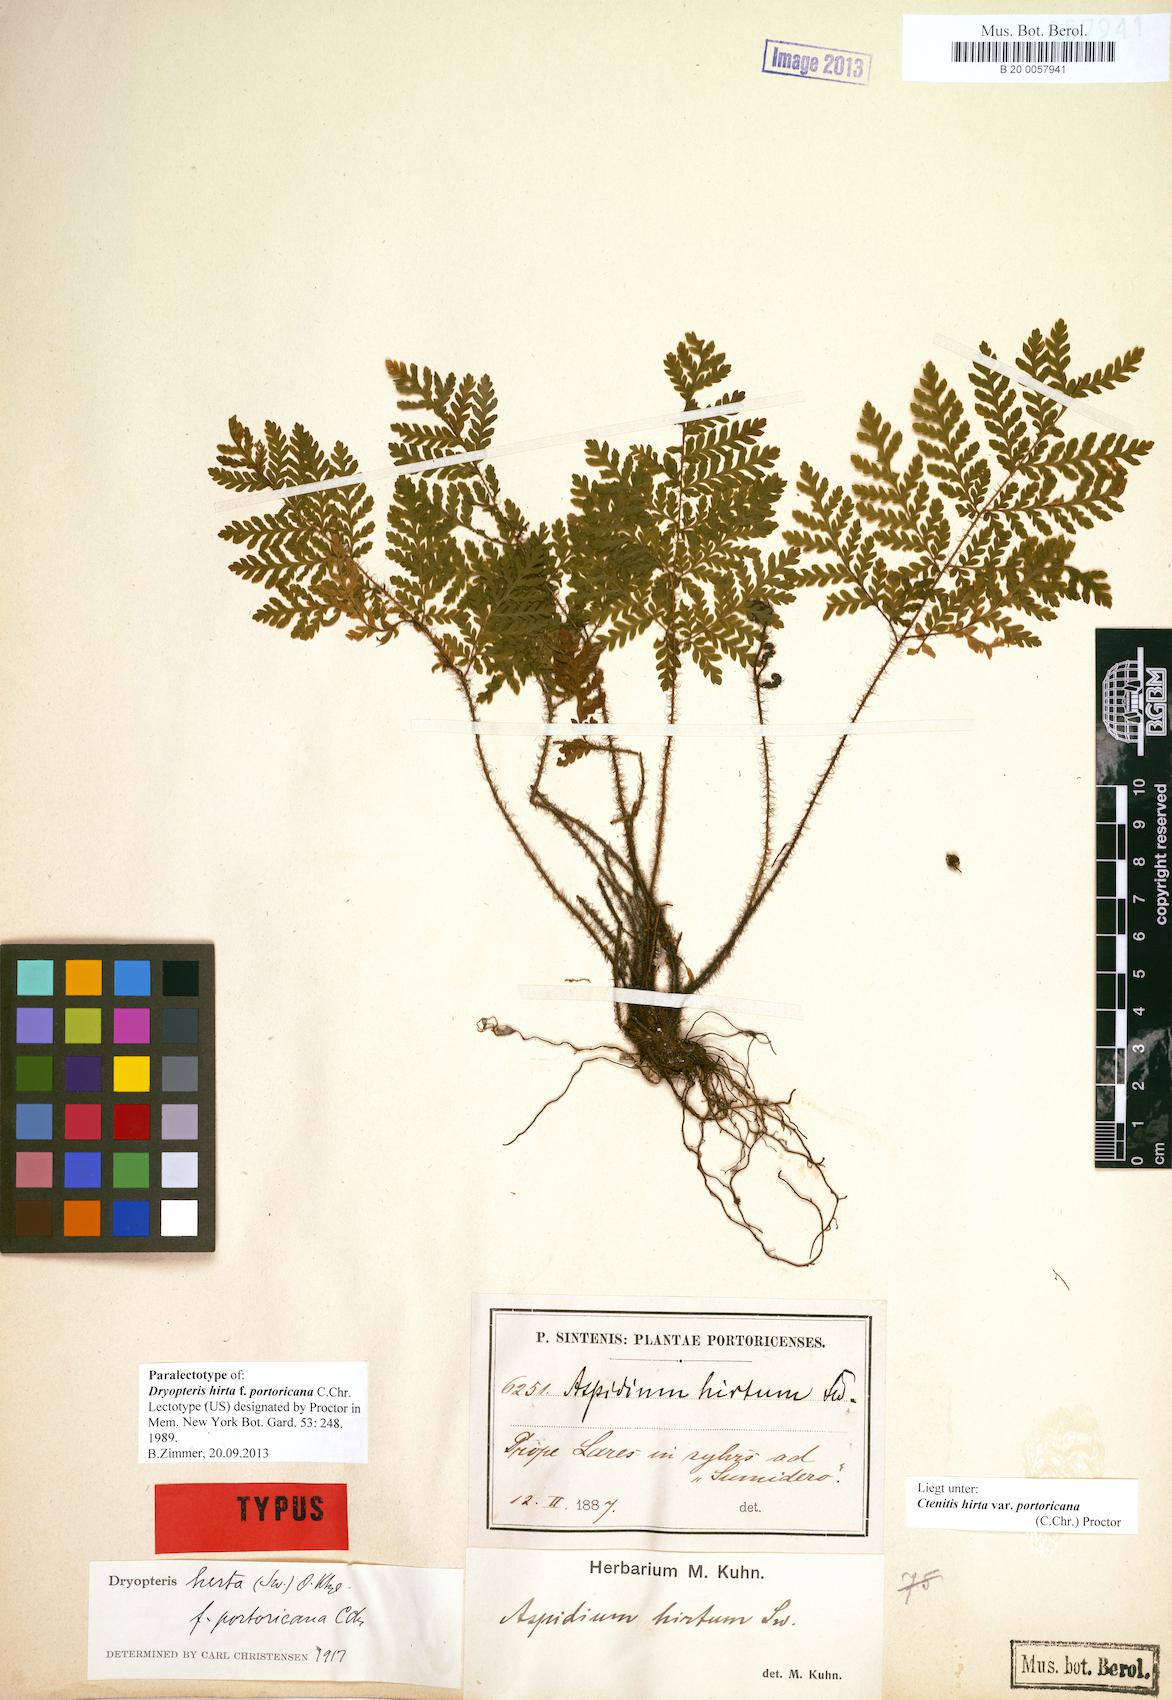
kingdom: Plantae
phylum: Tracheophyta
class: Polypodiopsida
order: Polypodiales
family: Dryopteridaceae
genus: Ctenitis
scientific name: Ctenitis hirta
